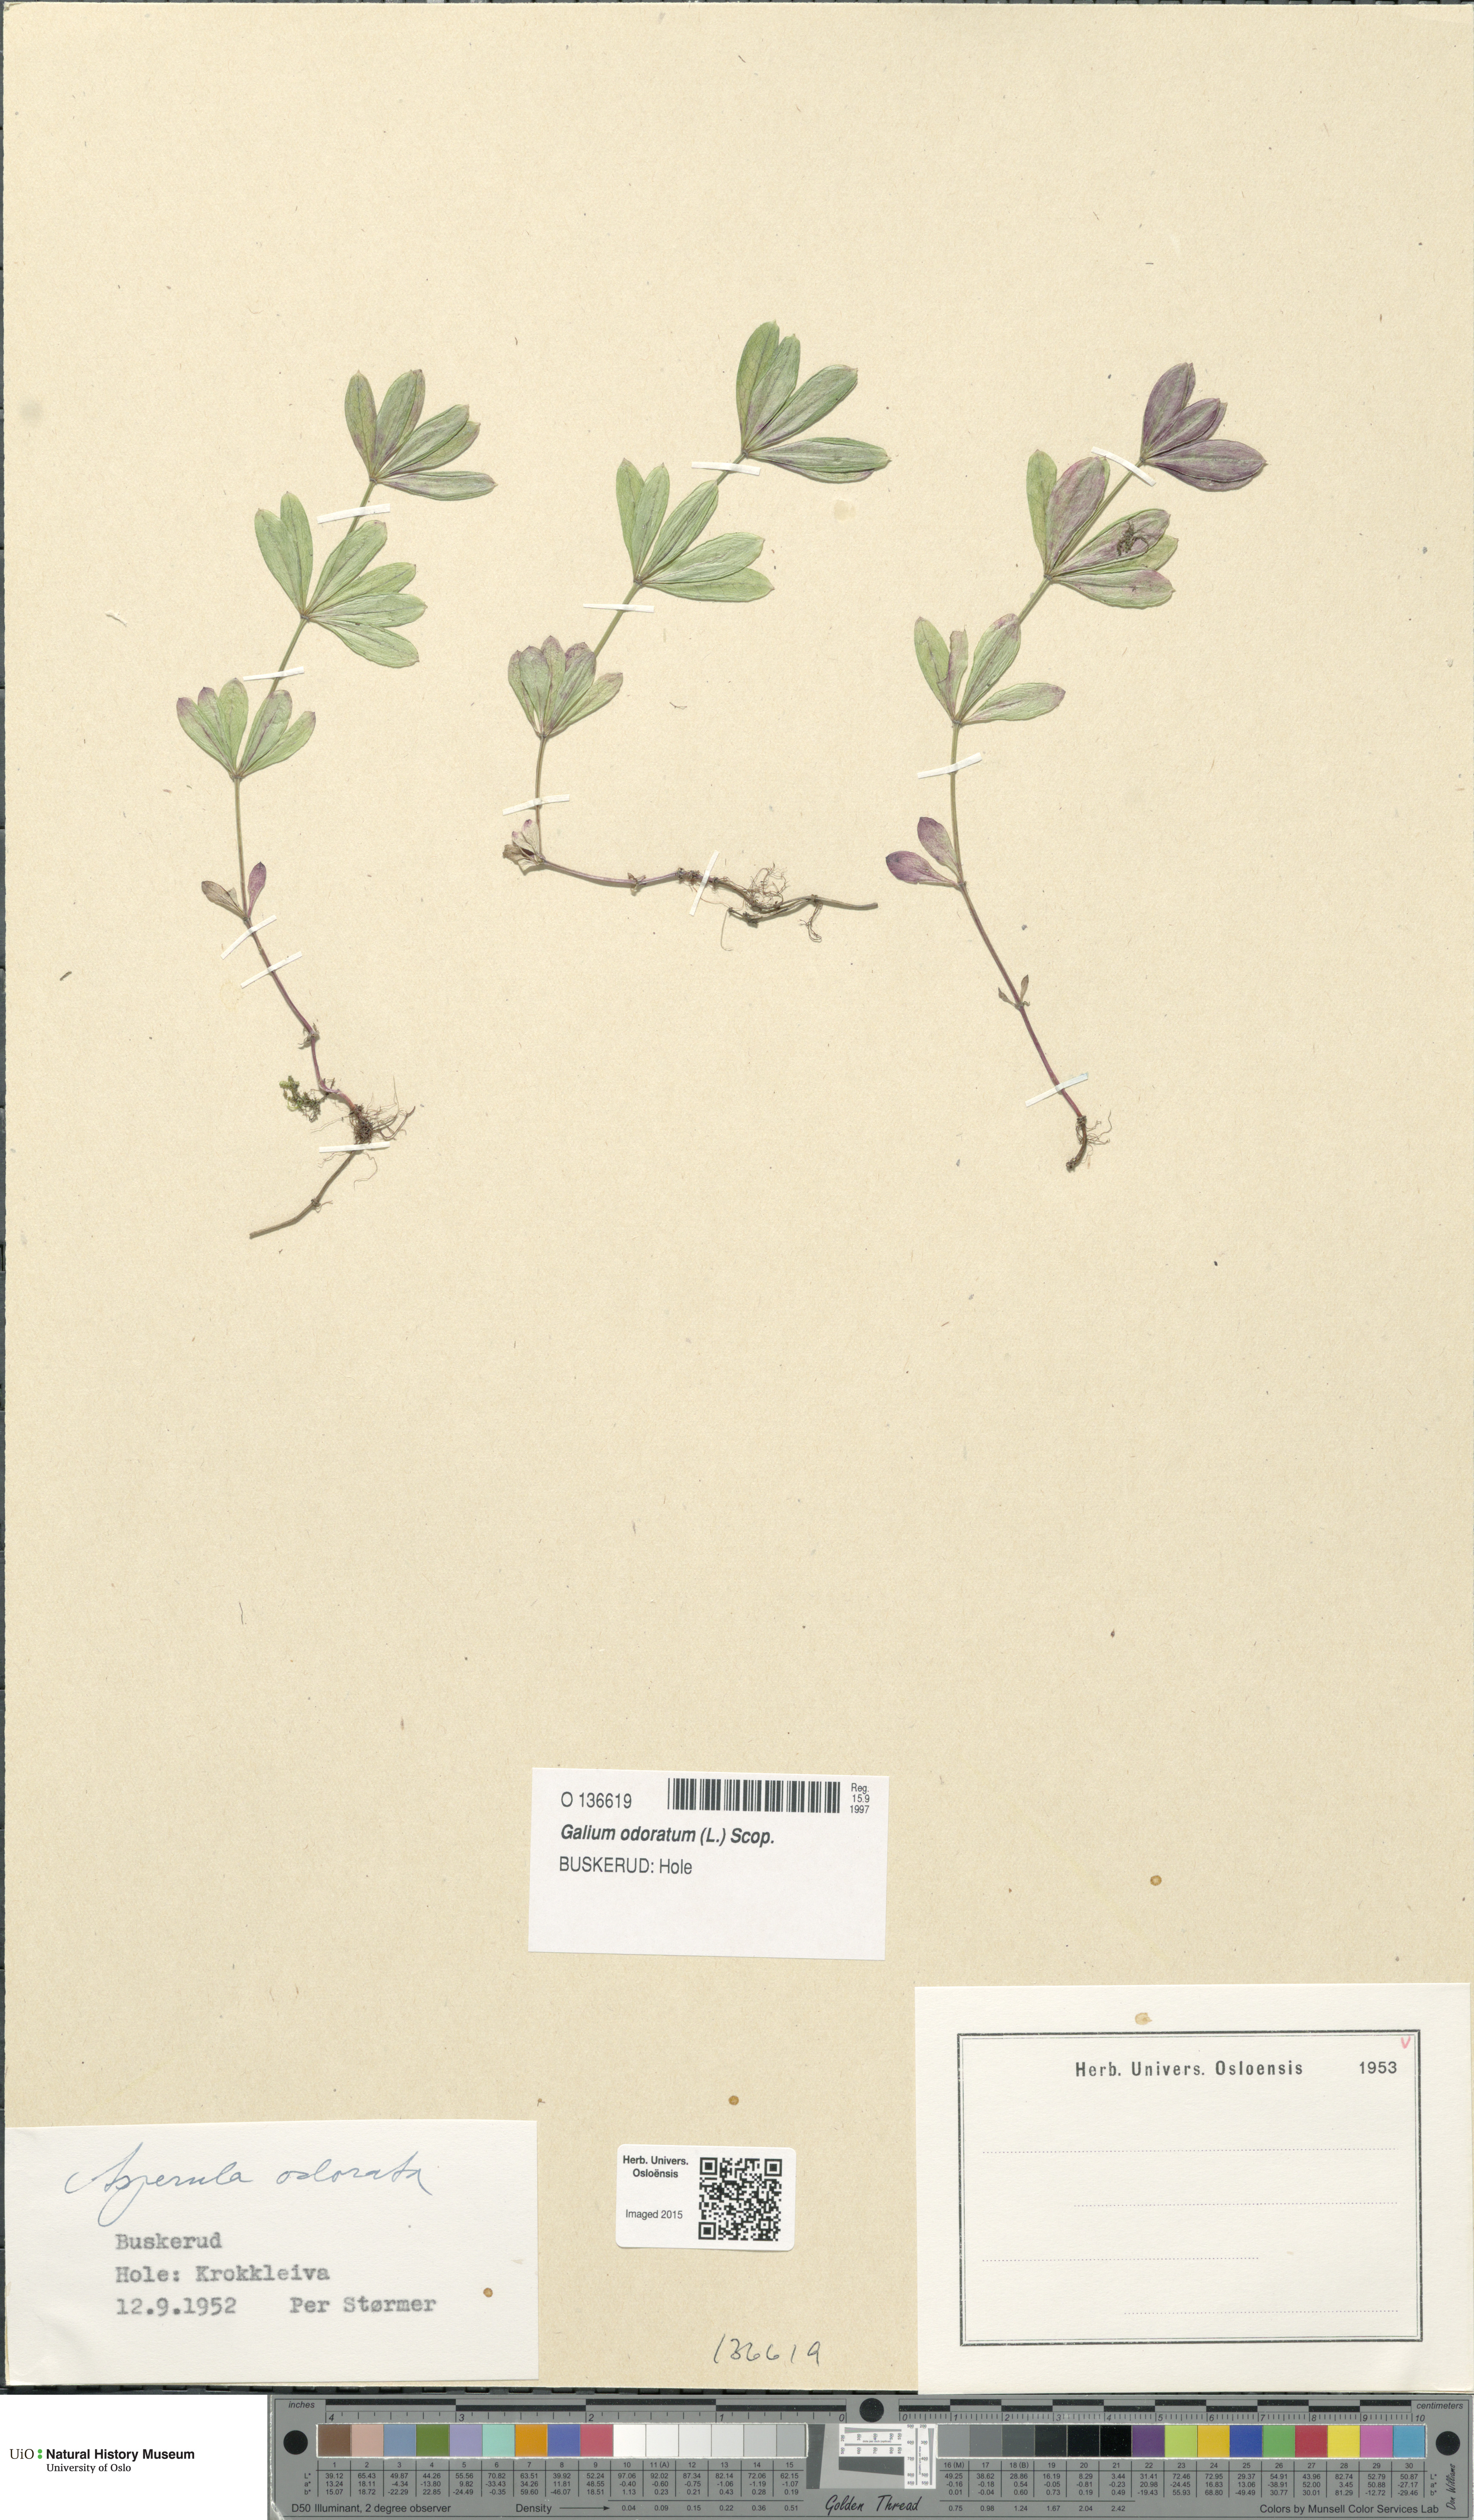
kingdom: Plantae
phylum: Tracheophyta
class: Magnoliopsida
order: Gentianales
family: Rubiaceae
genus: Galium
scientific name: Galium odoratum
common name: Sweet woodruff
